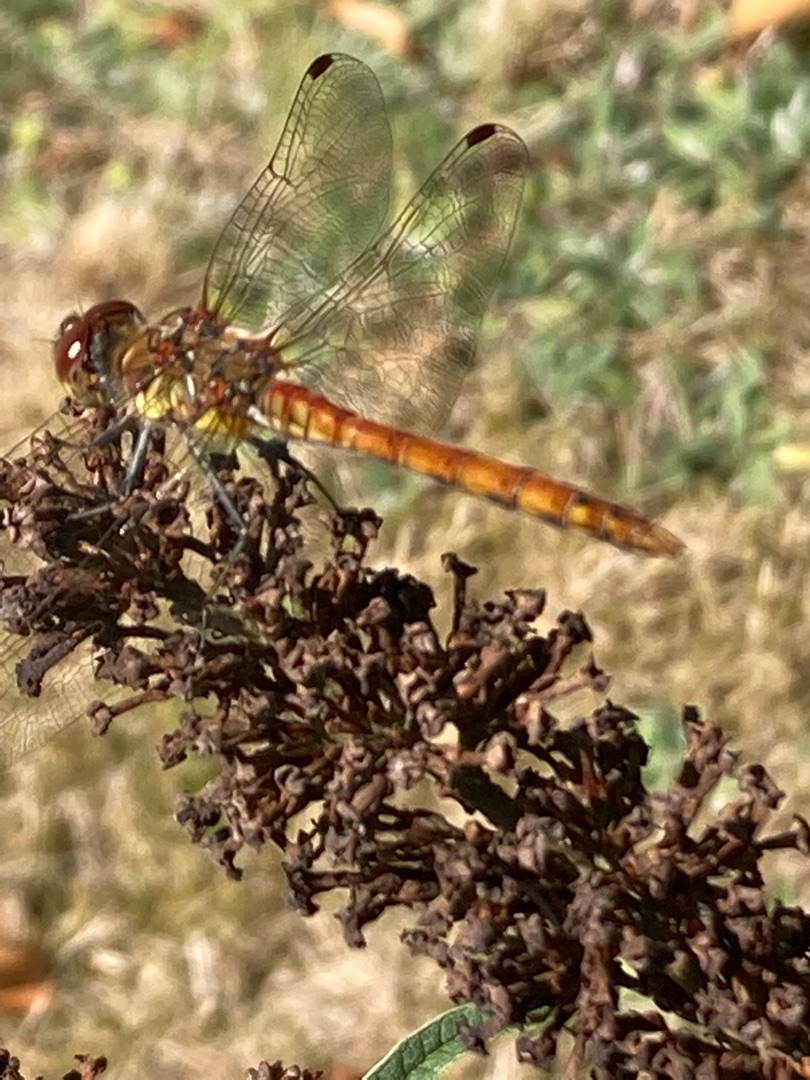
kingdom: Animalia
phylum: Arthropoda
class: Insecta
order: Odonata
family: Libellulidae
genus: Sympetrum
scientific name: Sympetrum striolatum
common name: Stor hedelibel
